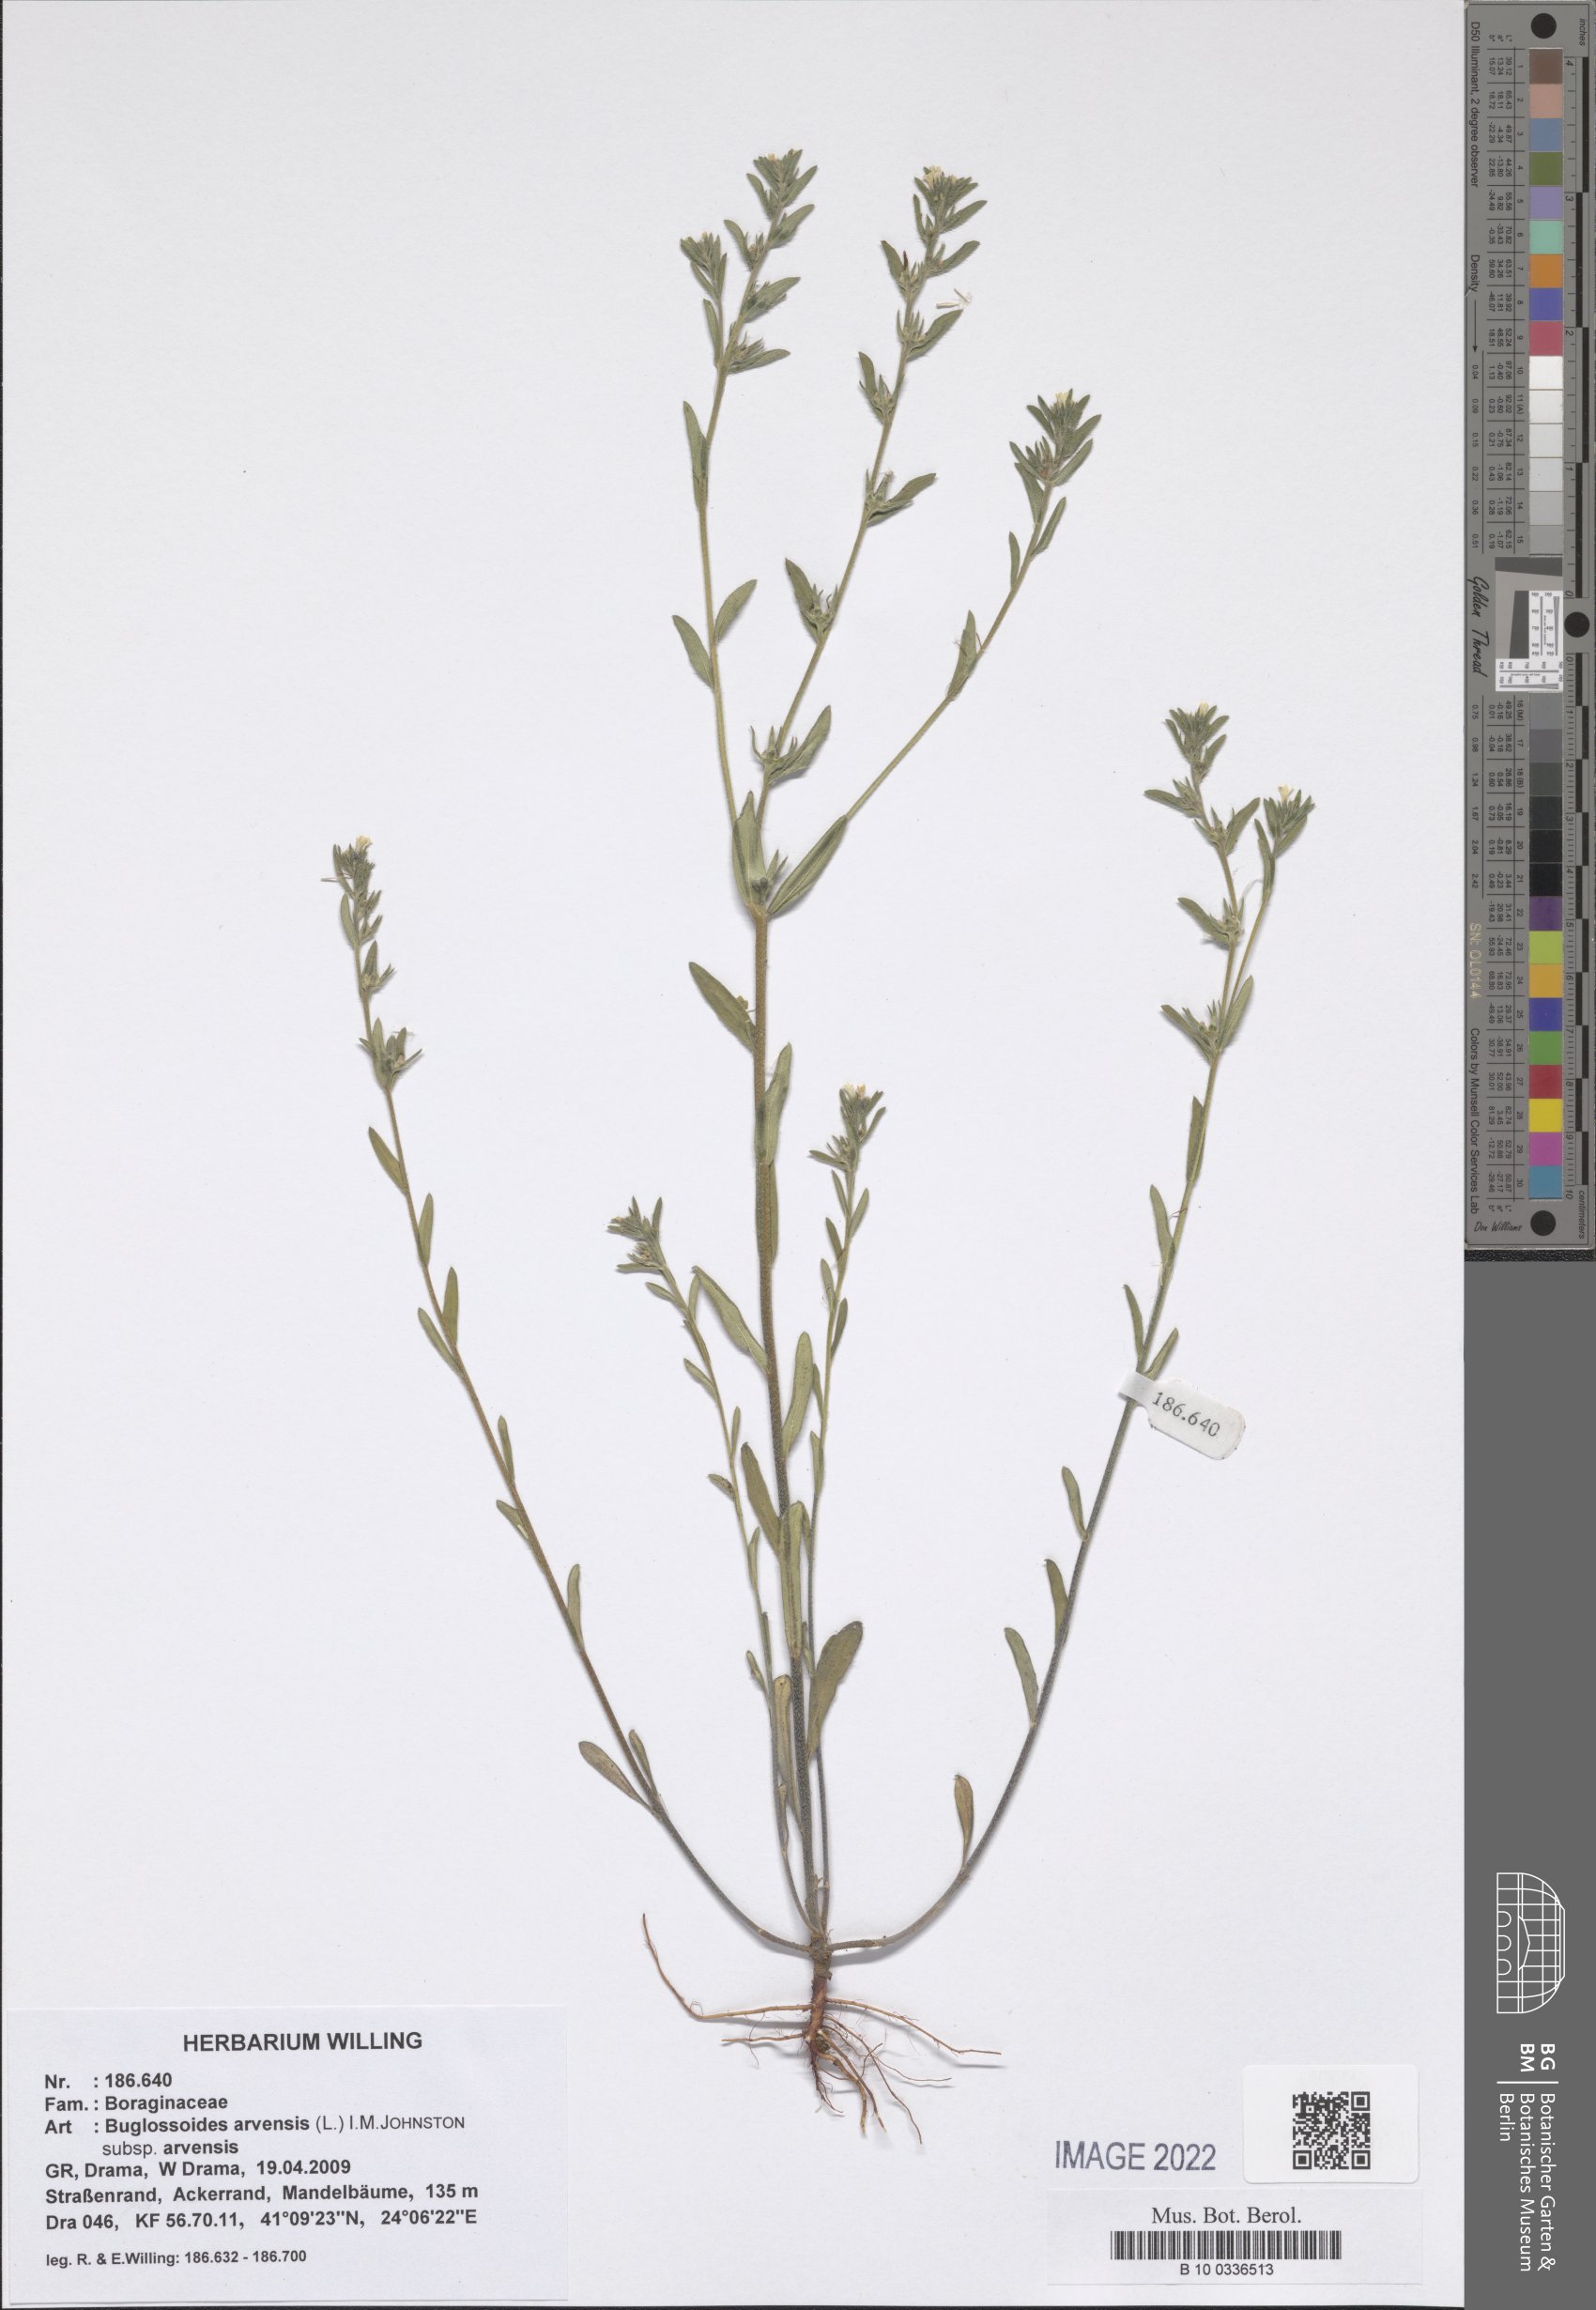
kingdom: Plantae
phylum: Tracheophyta
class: Magnoliopsida
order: Boraginales
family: Boraginaceae
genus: Buglossoides
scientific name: Buglossoides arvensis
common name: Corn gromwell
